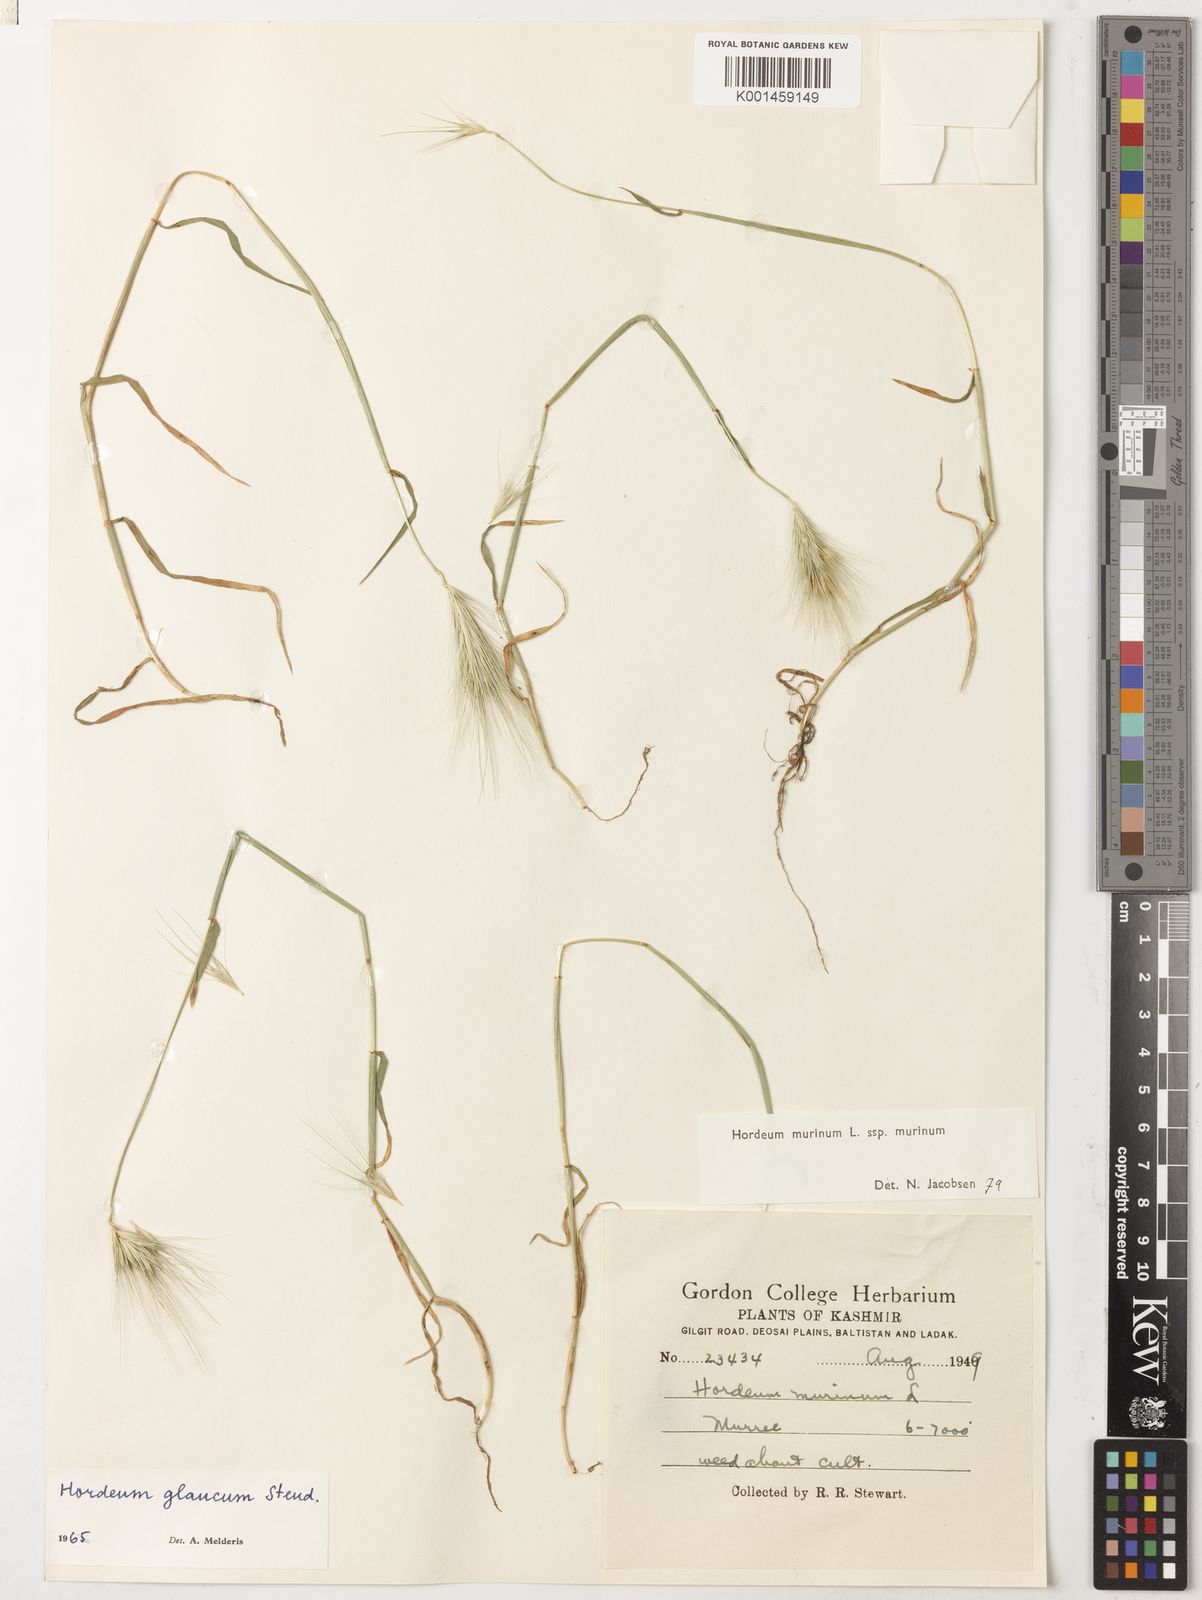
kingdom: Plantae
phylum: Tracheophyta
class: Liliopsida
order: Poales
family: Poaceae
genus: Hordeum
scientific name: Hordeum murinum
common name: Wall barley
